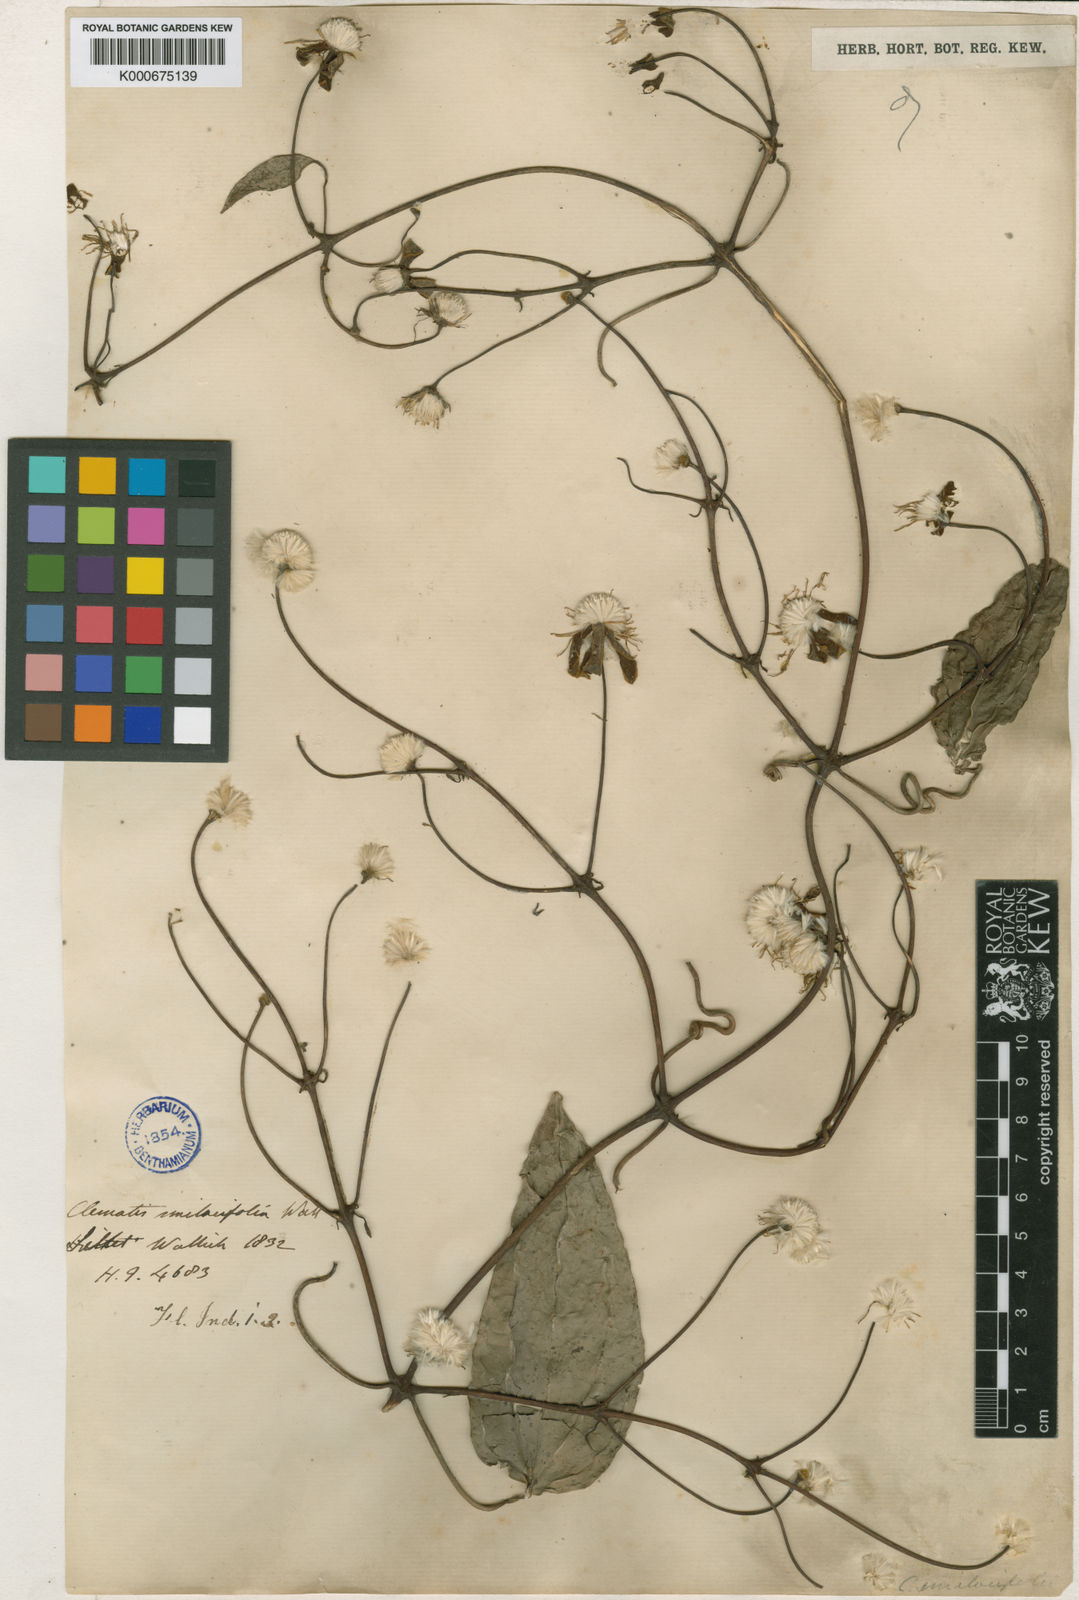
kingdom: Plantae
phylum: Tracheophyta
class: Magnoliopsida
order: Ranunculales
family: Ranunculaceae
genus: Clematis
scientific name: Clematis smilacifolia
